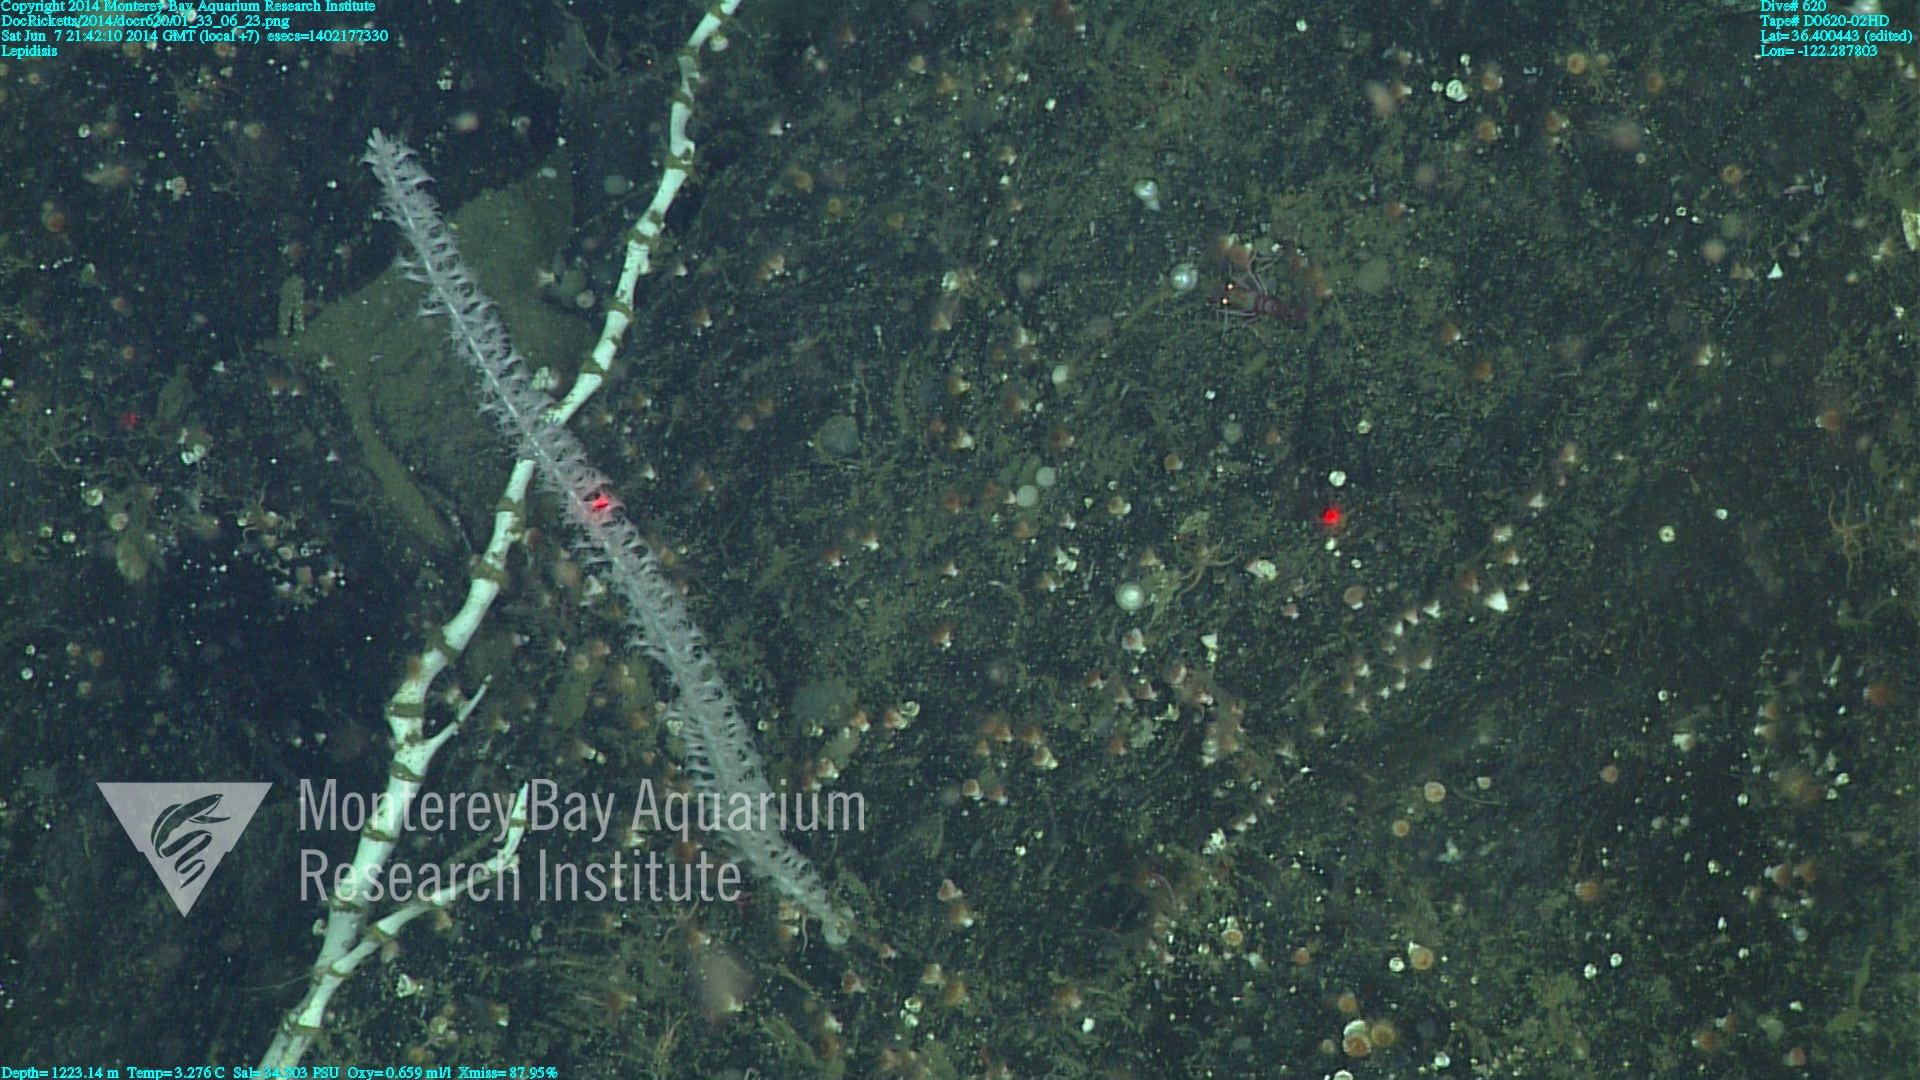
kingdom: Animalia
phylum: Cnidaria
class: Anthozoa
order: Scleralcyonacea
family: Keratoisididae
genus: Lepidisis
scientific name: Lepidisis
